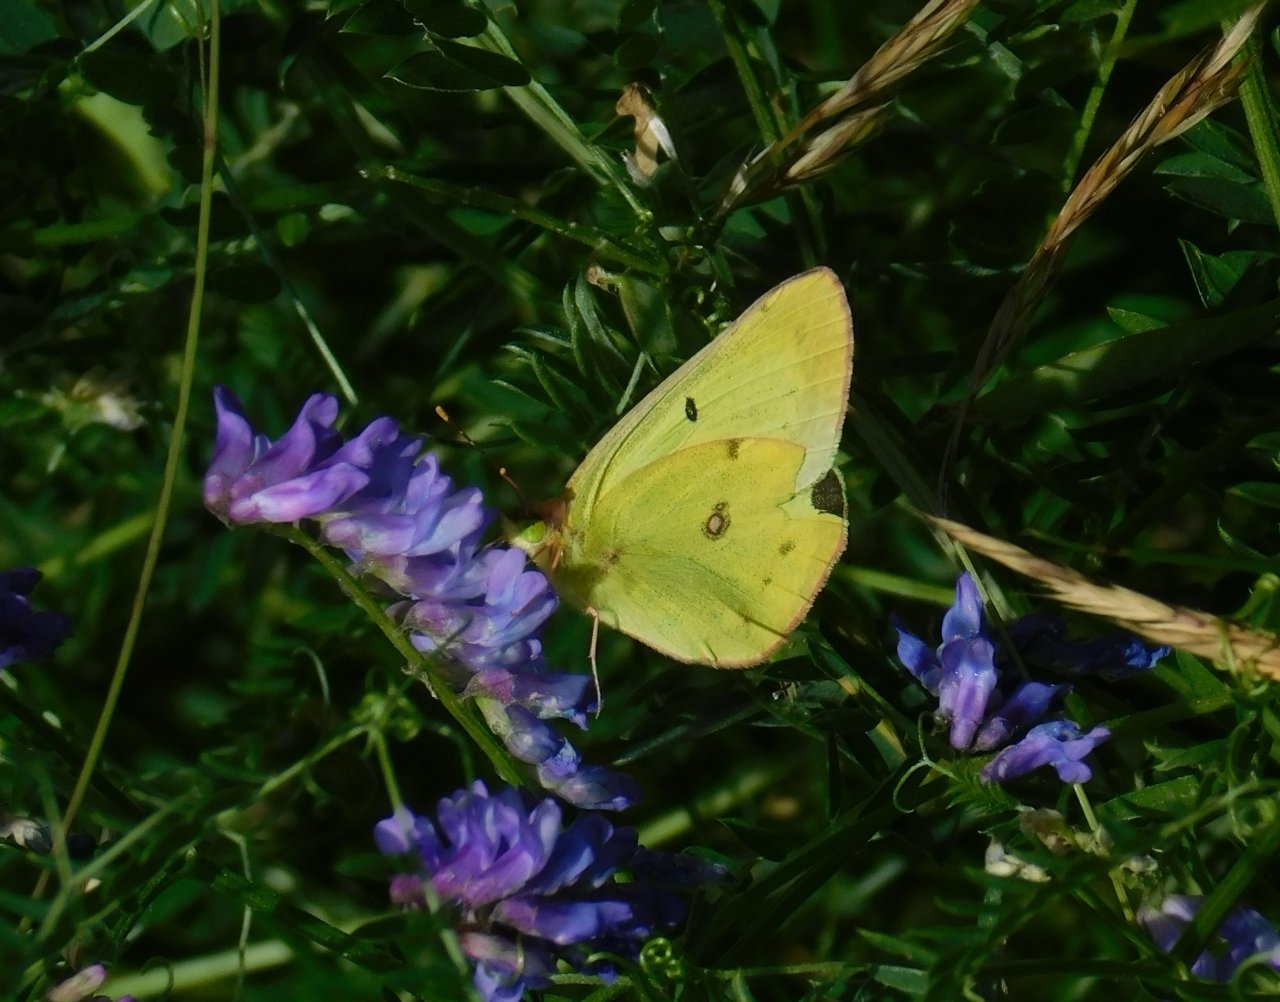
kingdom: Animalia
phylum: Arthropoda
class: Insecta
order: Lepidoptera
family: Pieridae
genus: Colias
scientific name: Colias philodice
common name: Clouded Sulphur
